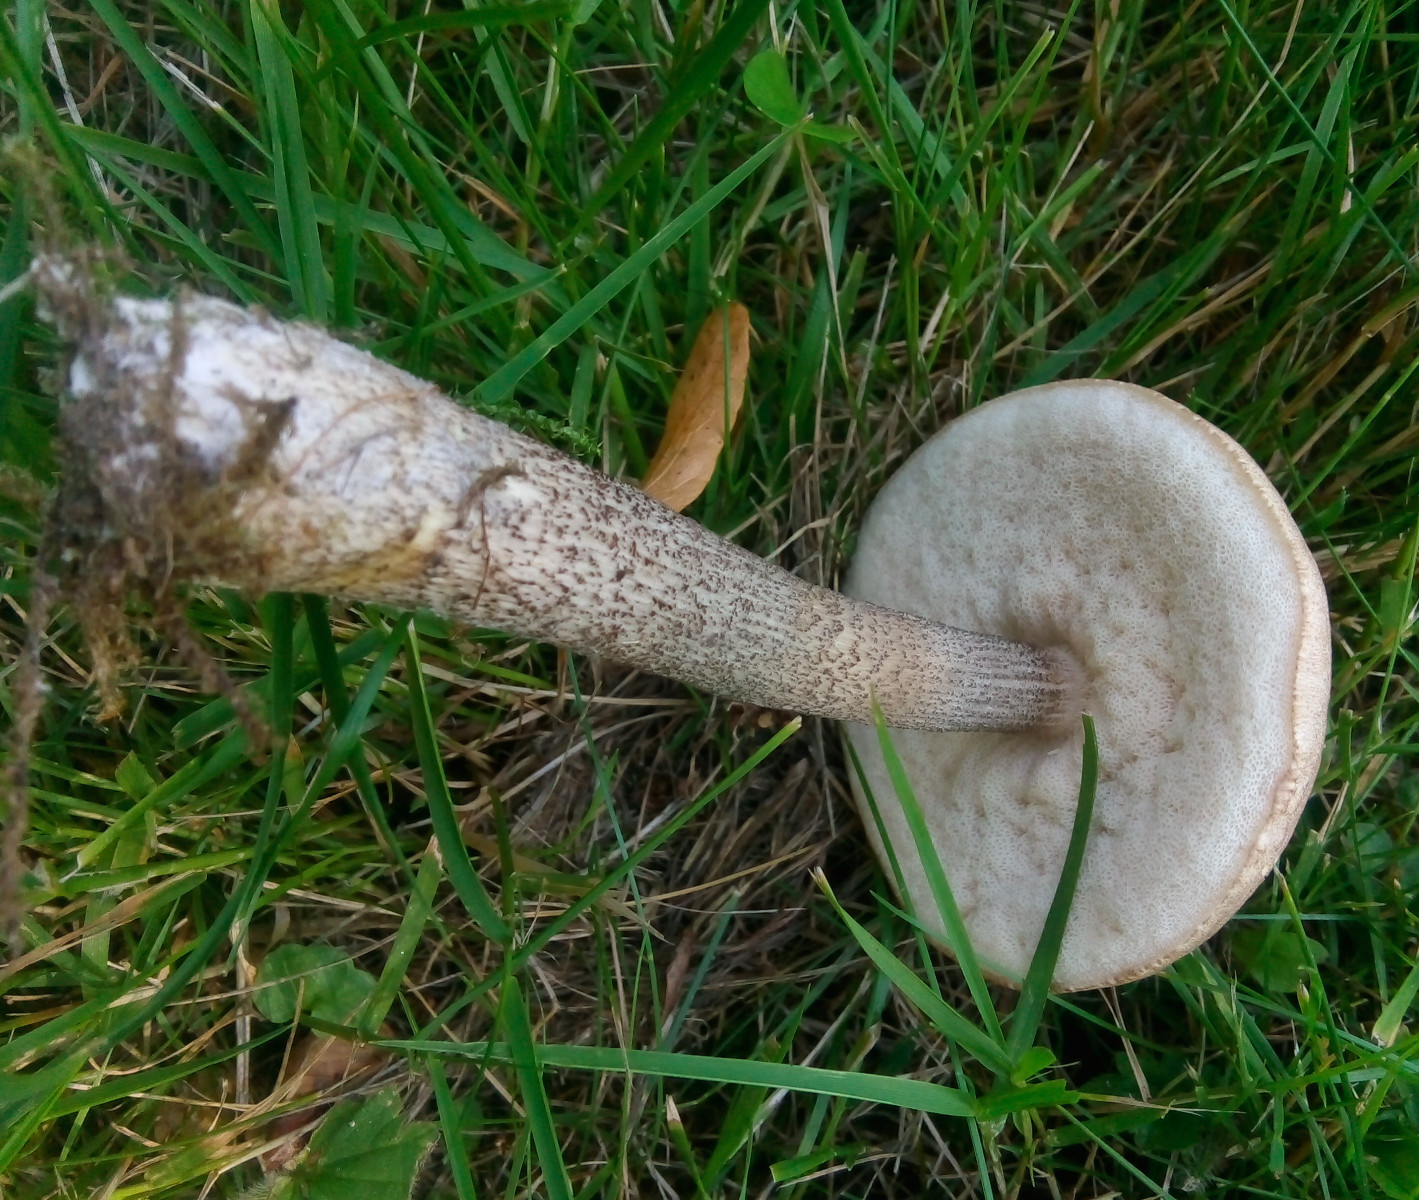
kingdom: Fungi
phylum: Basidiomycota
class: Agaricomycetes
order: Boletales
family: Boletaceae
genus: Leccinum
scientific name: Leccinum cyaneobasileucum
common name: almindelig skælrørhat
